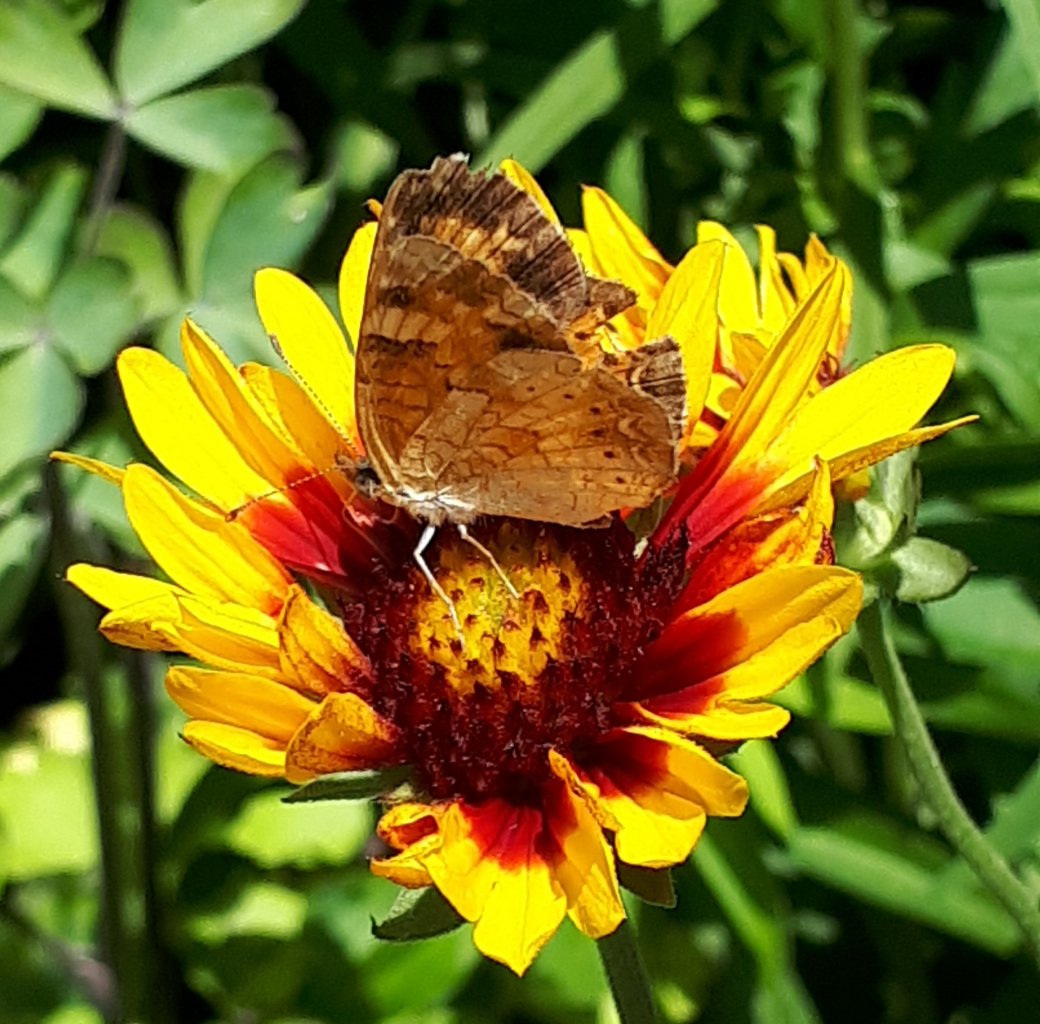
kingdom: Animalia
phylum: Arthropoda
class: Insecta
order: Lepidoptera
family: Nymphalidae
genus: Phyciodes
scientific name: Phyciodes tharos
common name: Northern Crescent
